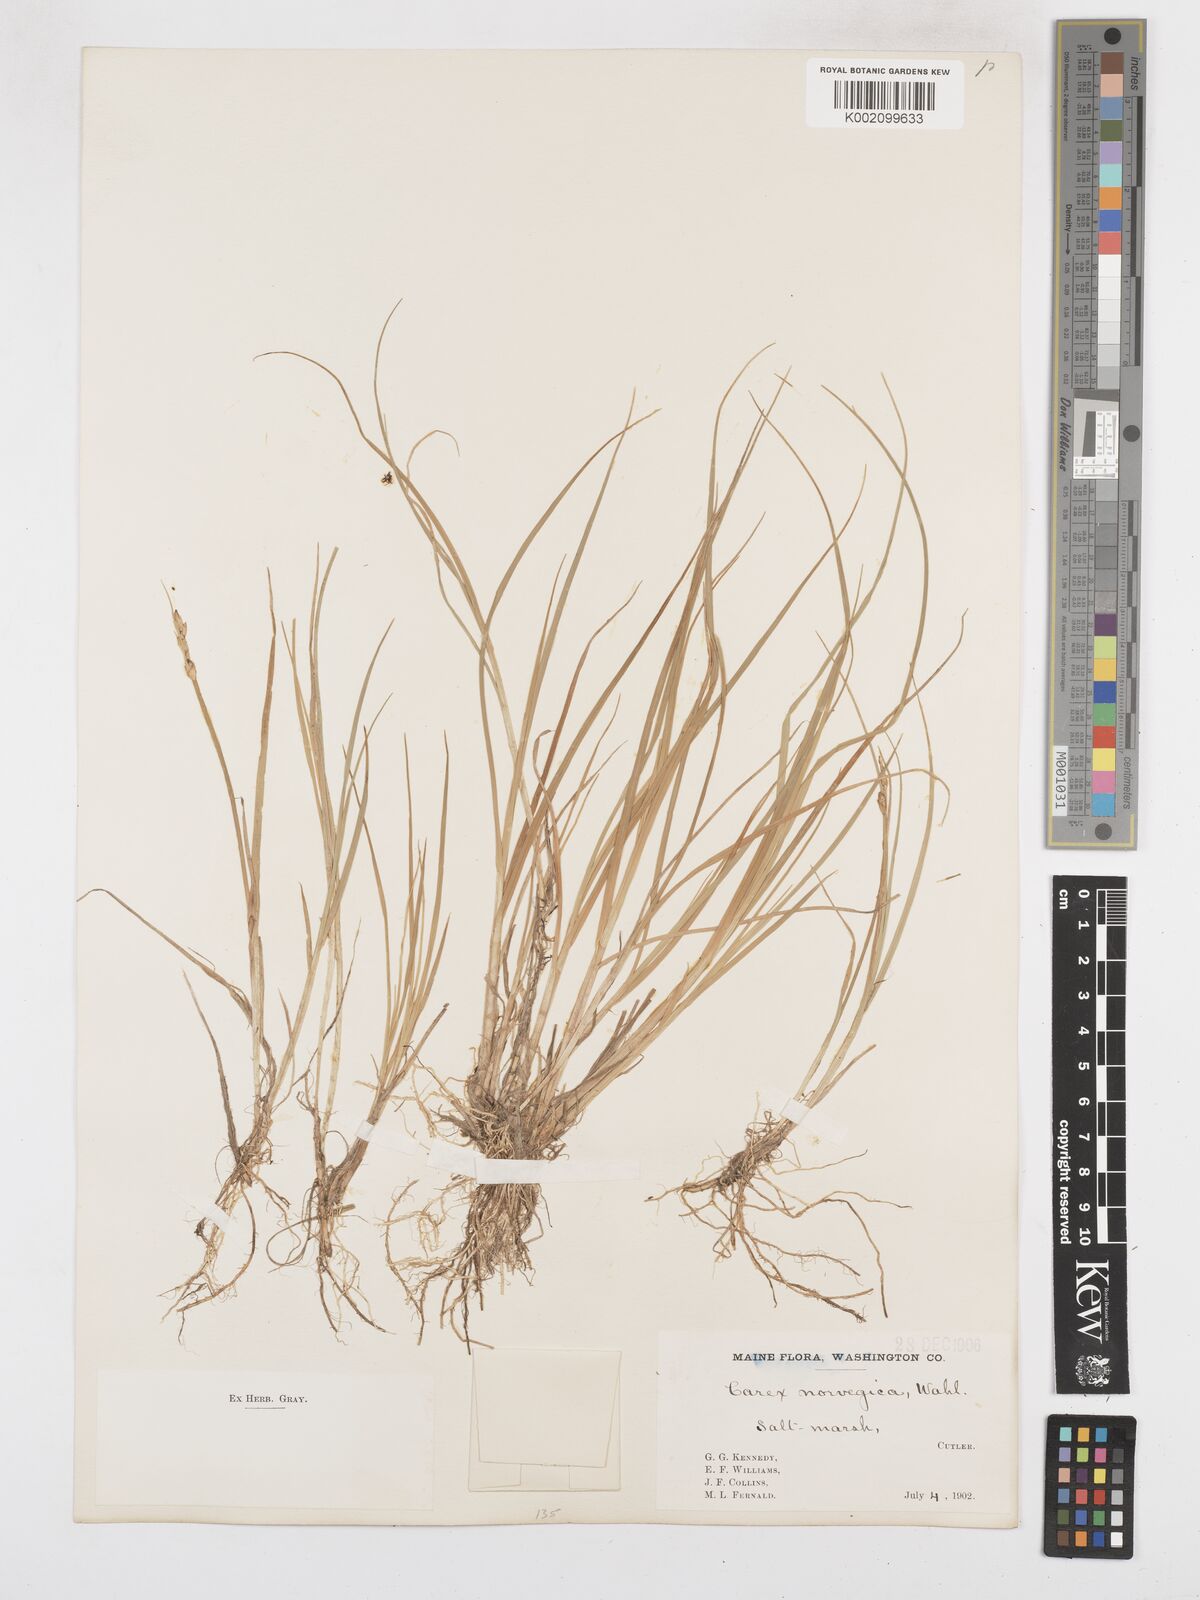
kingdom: Plantae
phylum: Tracheophyta
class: Liliopsida
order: Poales
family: Cyperaceae
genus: Carex
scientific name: Carex mackenziei
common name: Mackenzie's sedge
